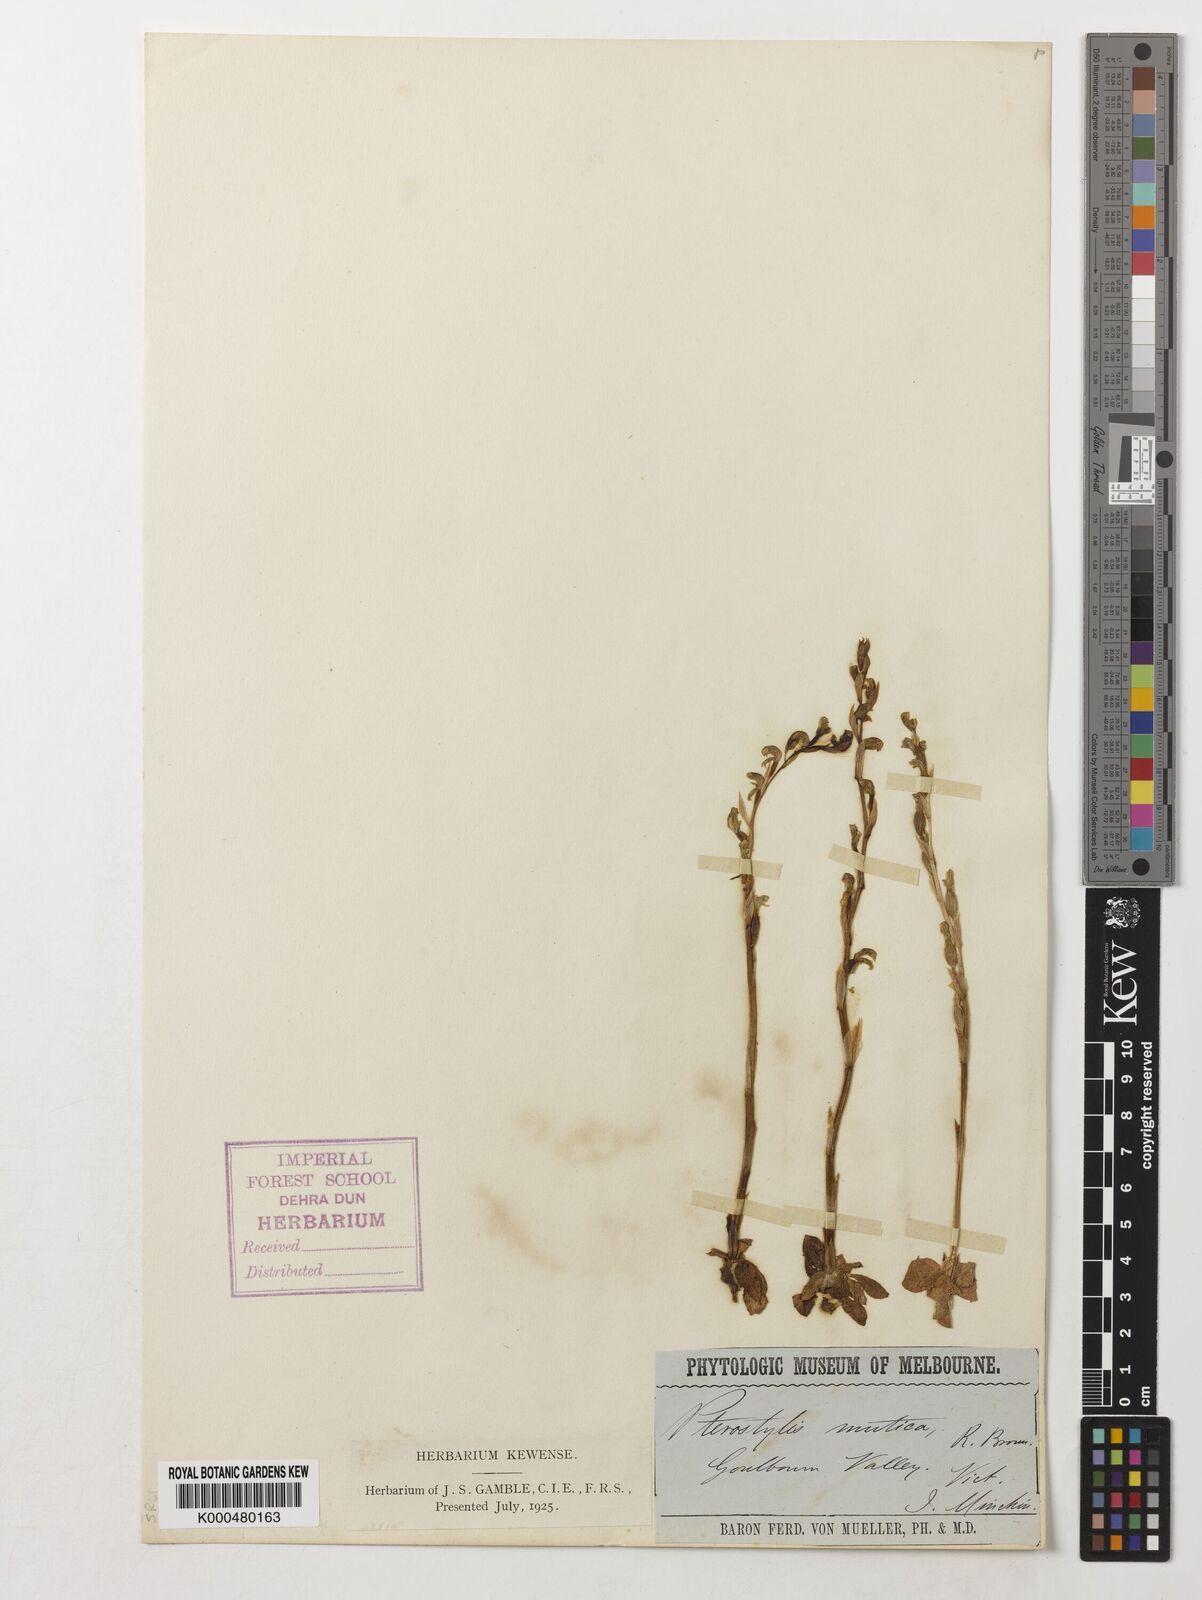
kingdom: Plantae
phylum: Tracheophyta
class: Liliopsida
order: Asparagales
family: Orchidaceae
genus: Pterostylis
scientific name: Pterostylis mutica
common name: Midget greenhood
